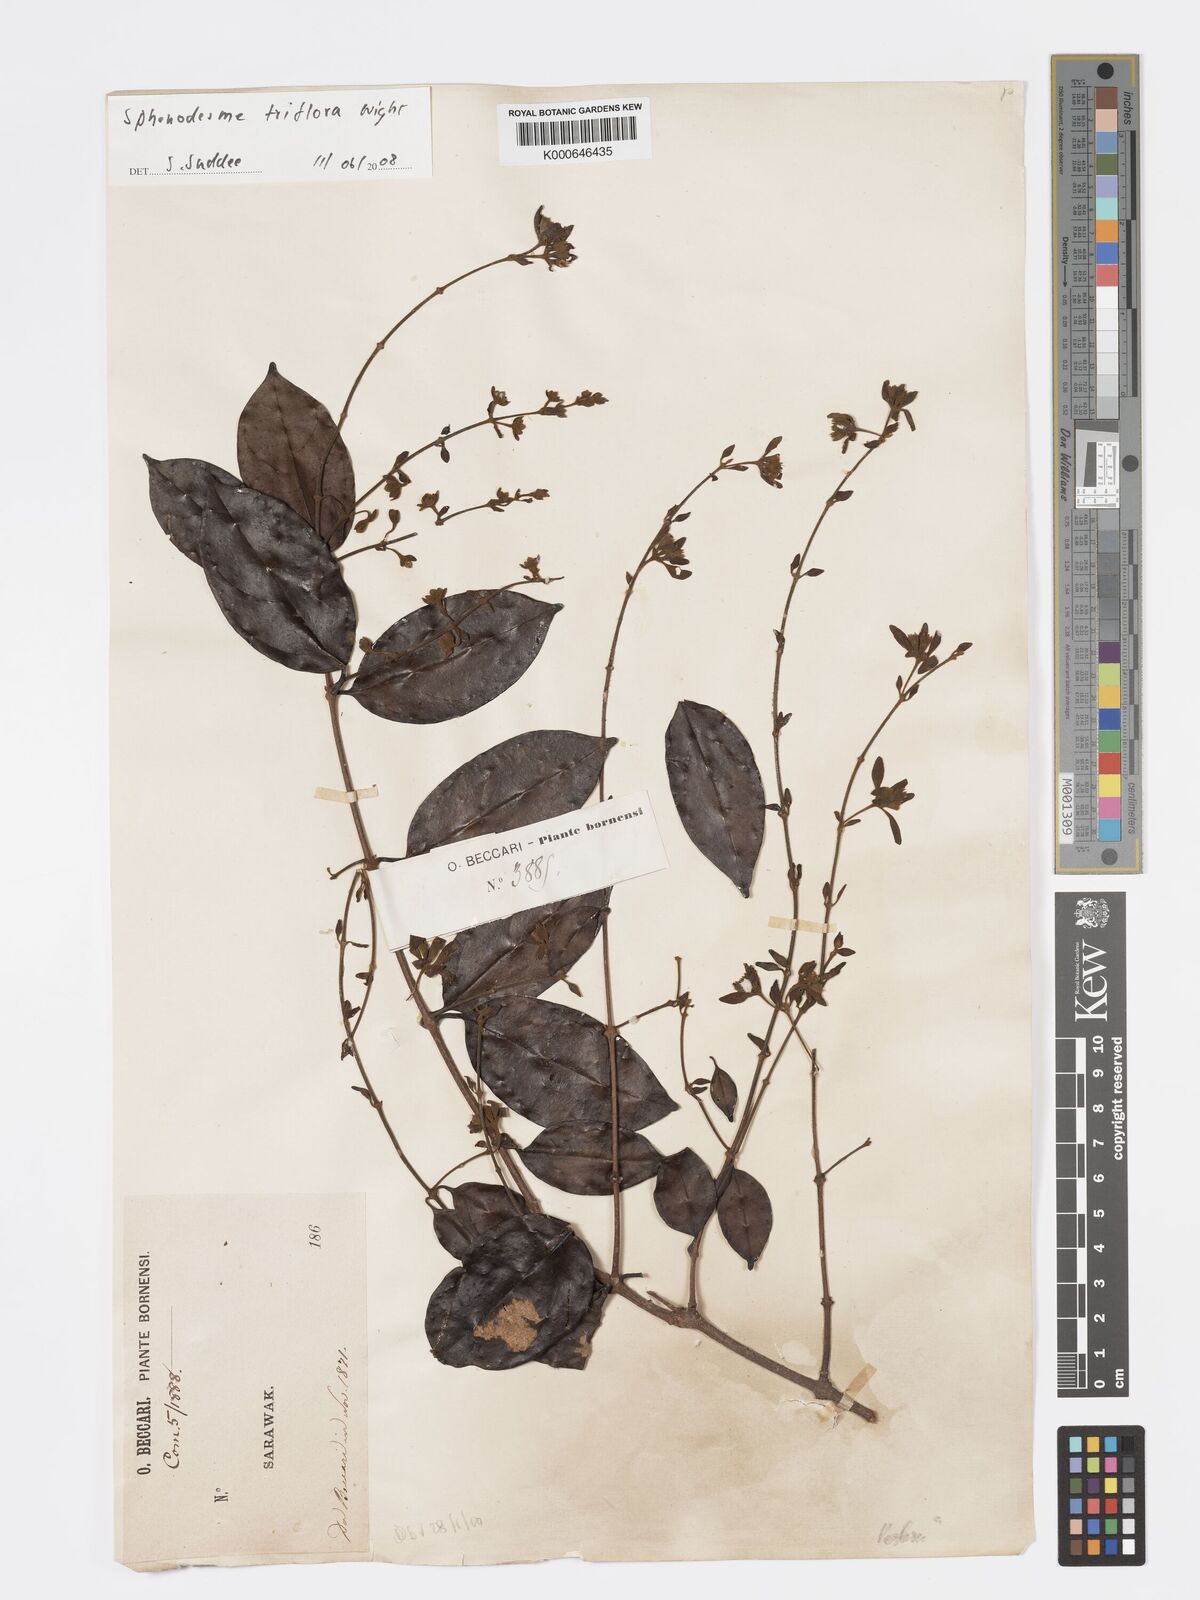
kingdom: Plantae
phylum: Tracheophyta
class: Magnoliopsida
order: Lamiales
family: Lamiaceae
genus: Sphenodesme
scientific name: Sphenodesme triflora
